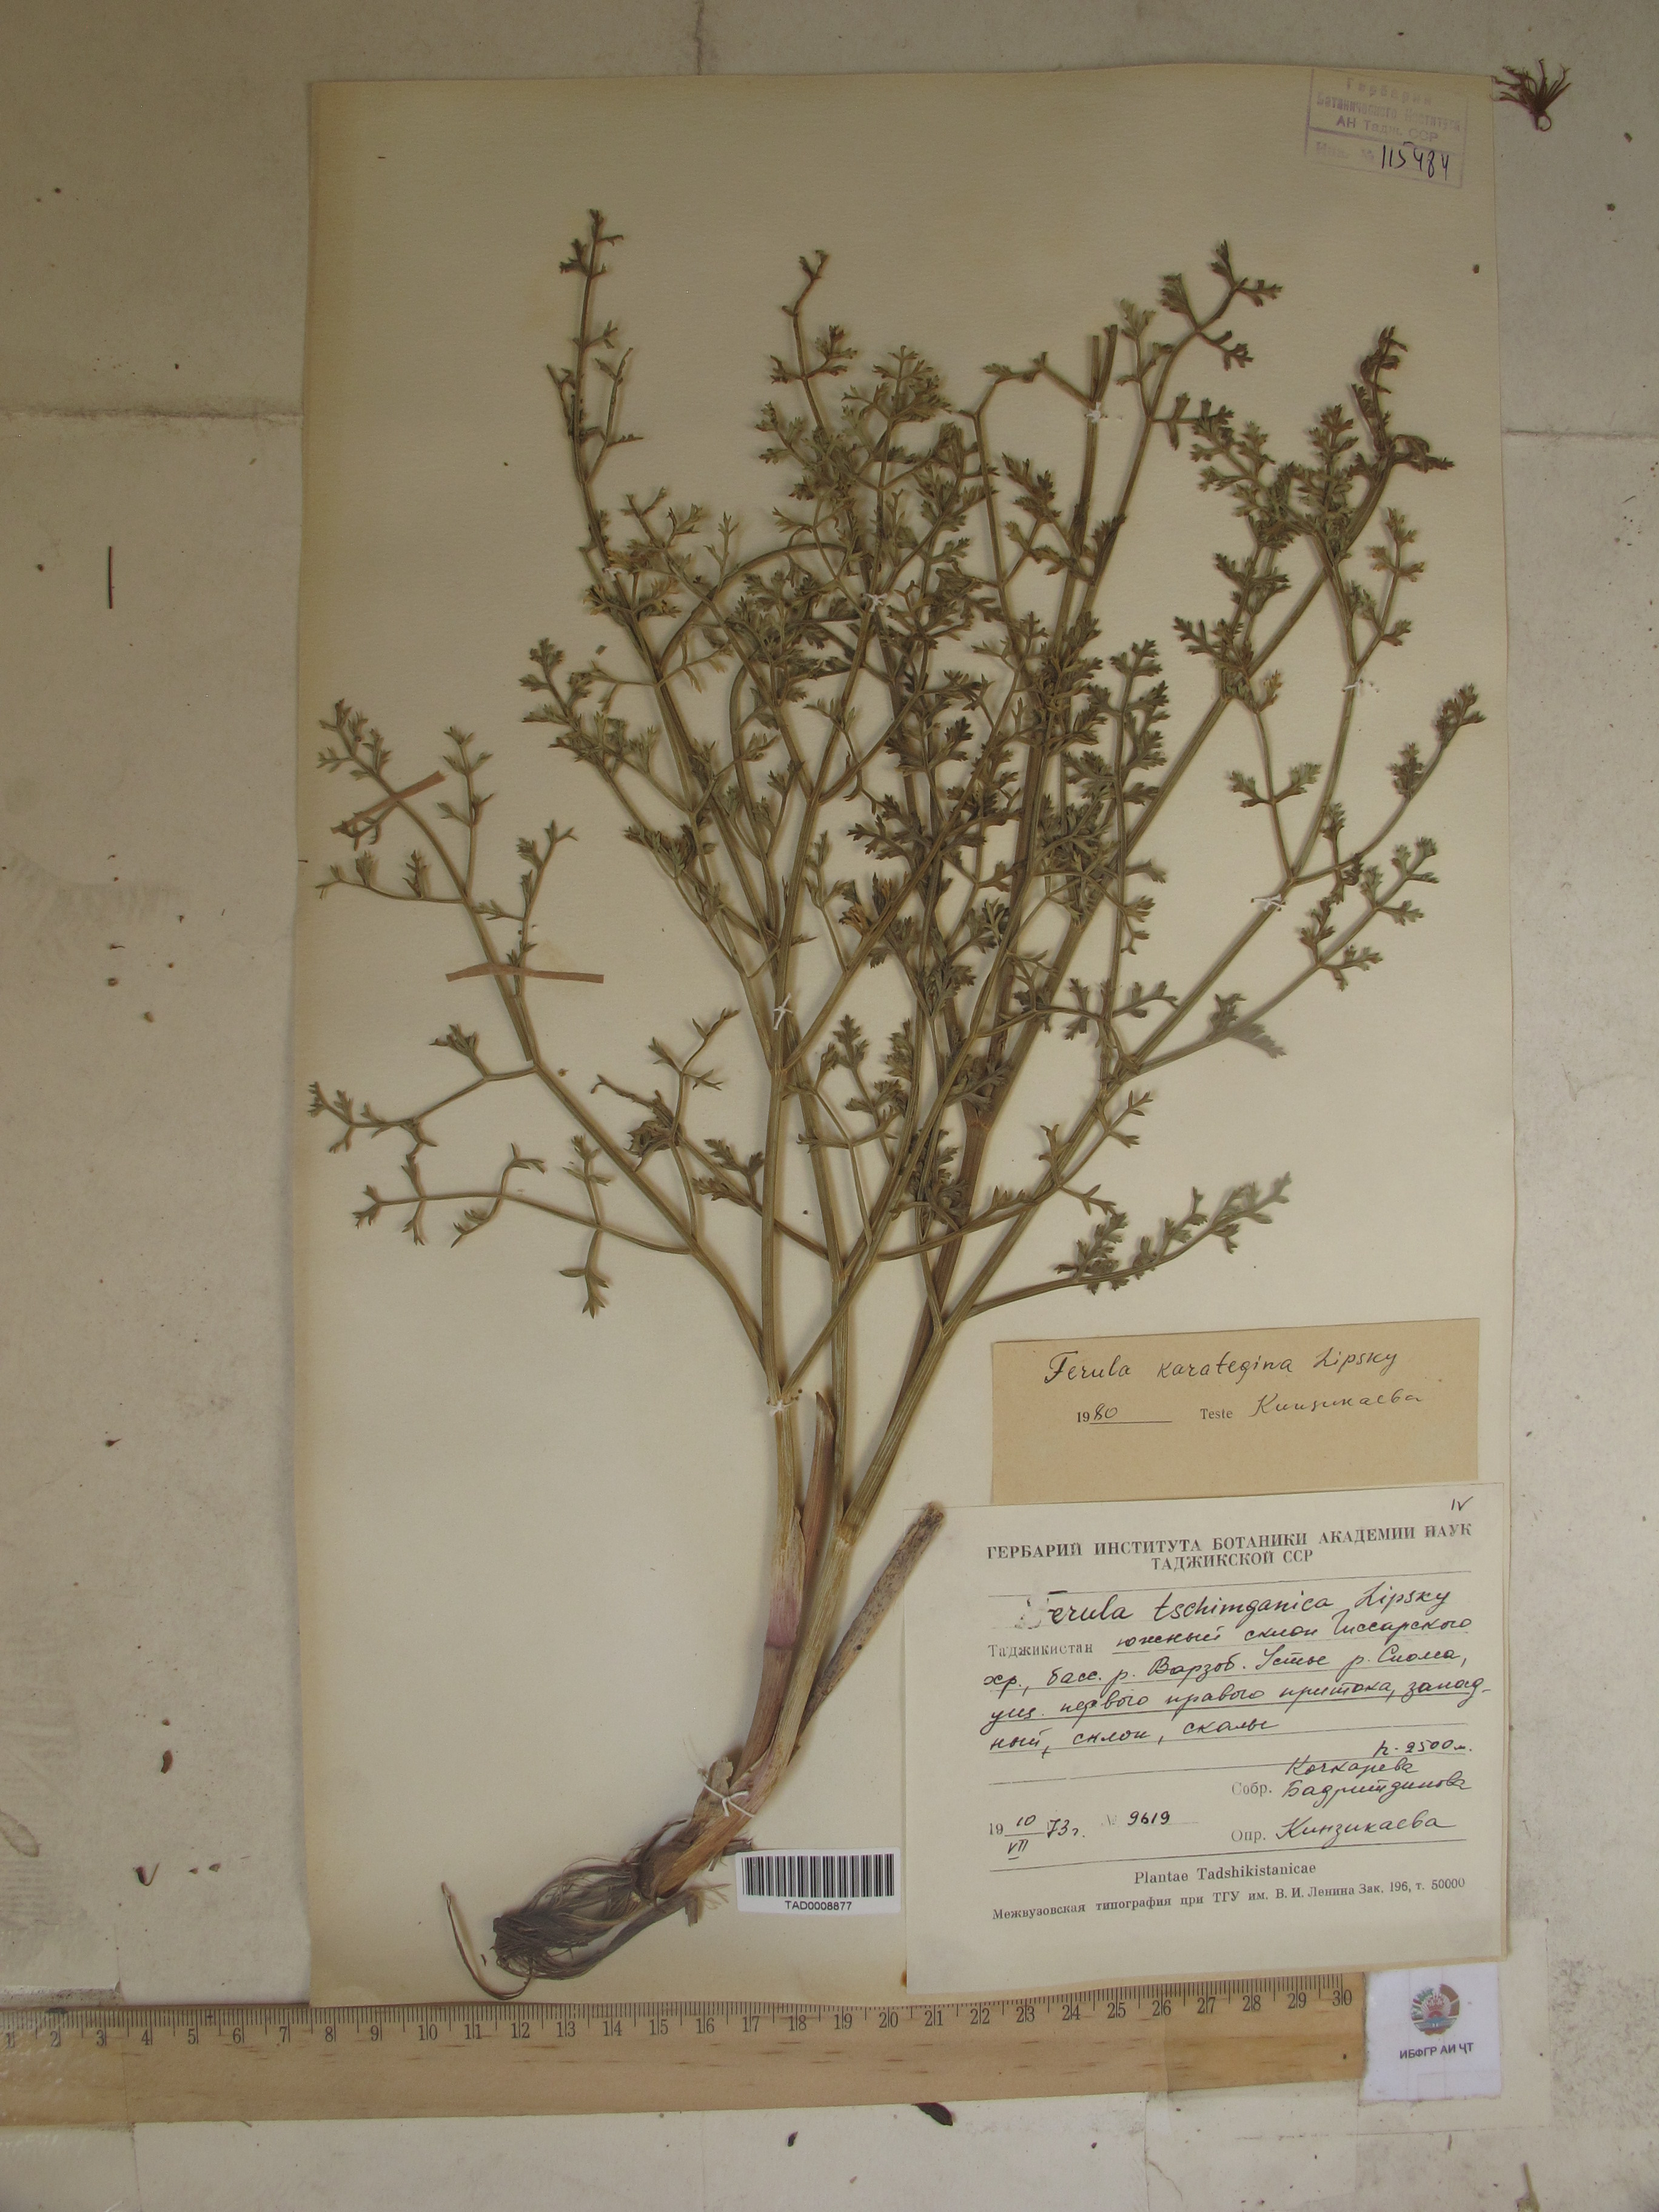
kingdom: Plantae
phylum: Tracheophyta
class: Magnoliopsida
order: Apiales
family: Apiaceae
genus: Ferula
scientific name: Ferula tschimganica
